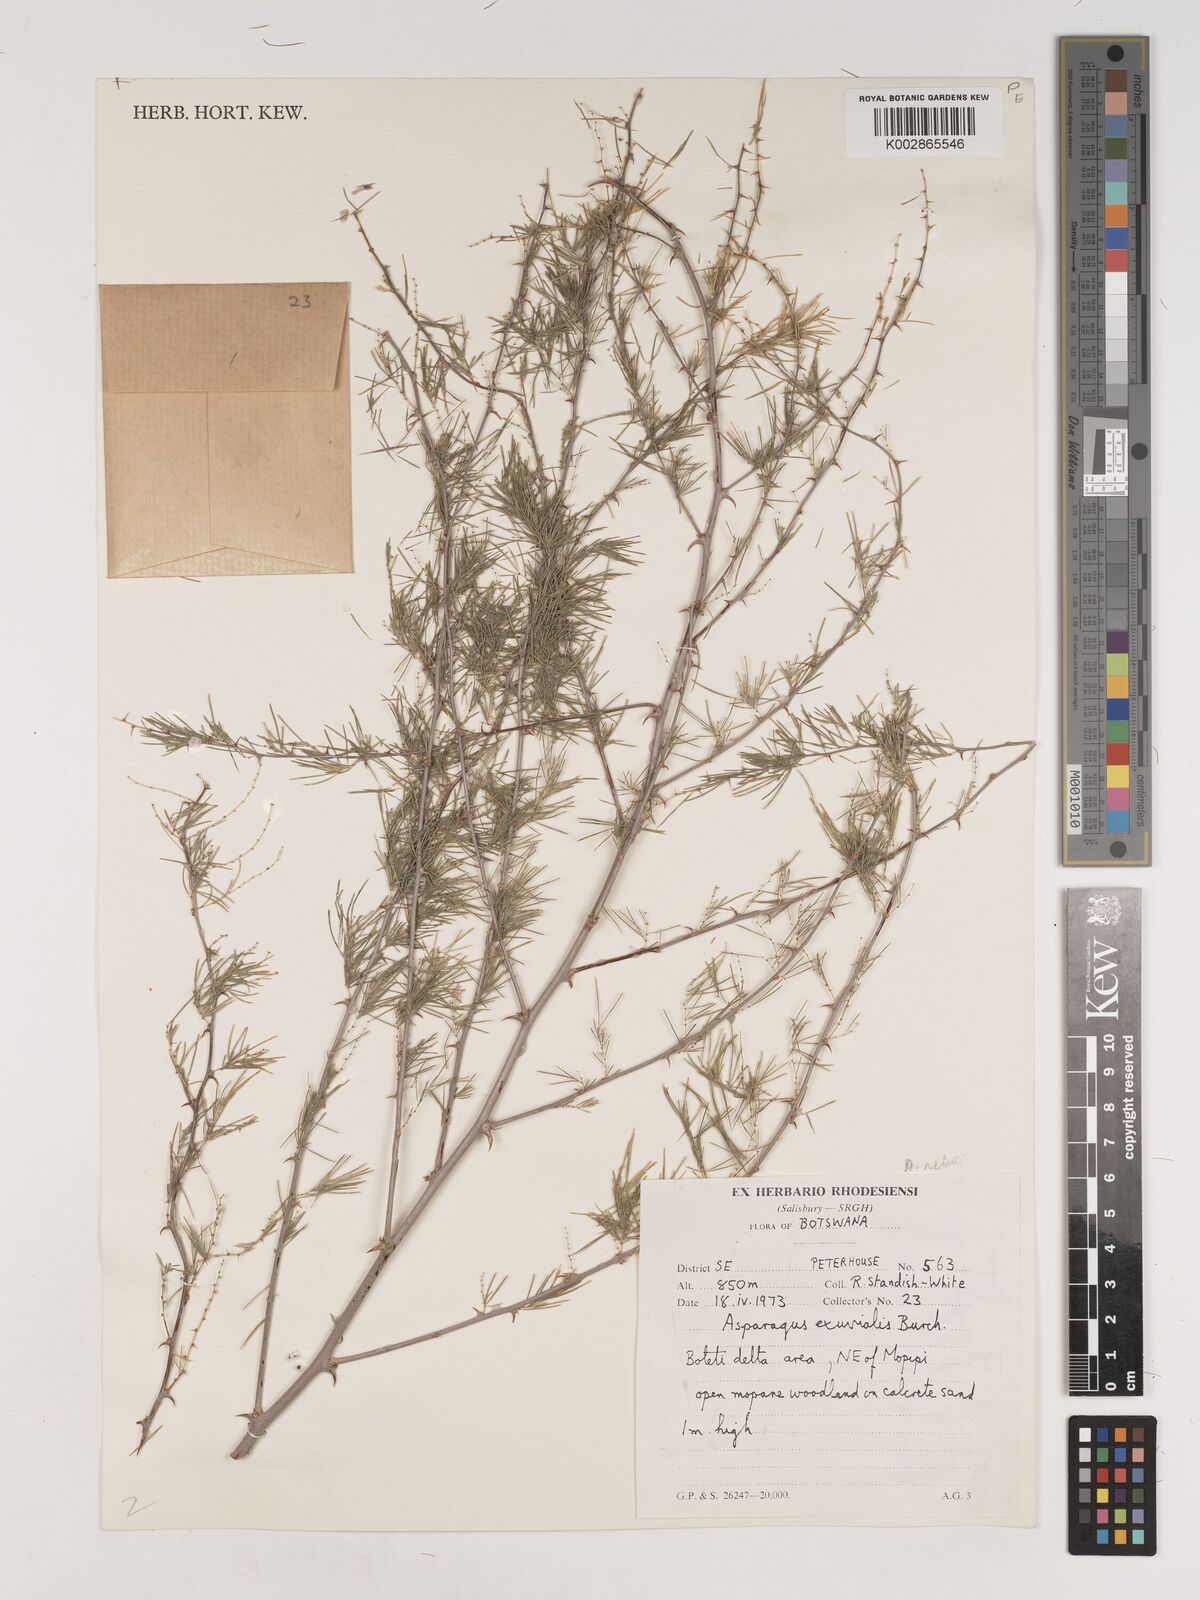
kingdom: Plantae
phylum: Tracheophyta
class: Liliopsida
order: Asparagales
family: Asparagaceae
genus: Asparagus
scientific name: Asparagus nelsii
